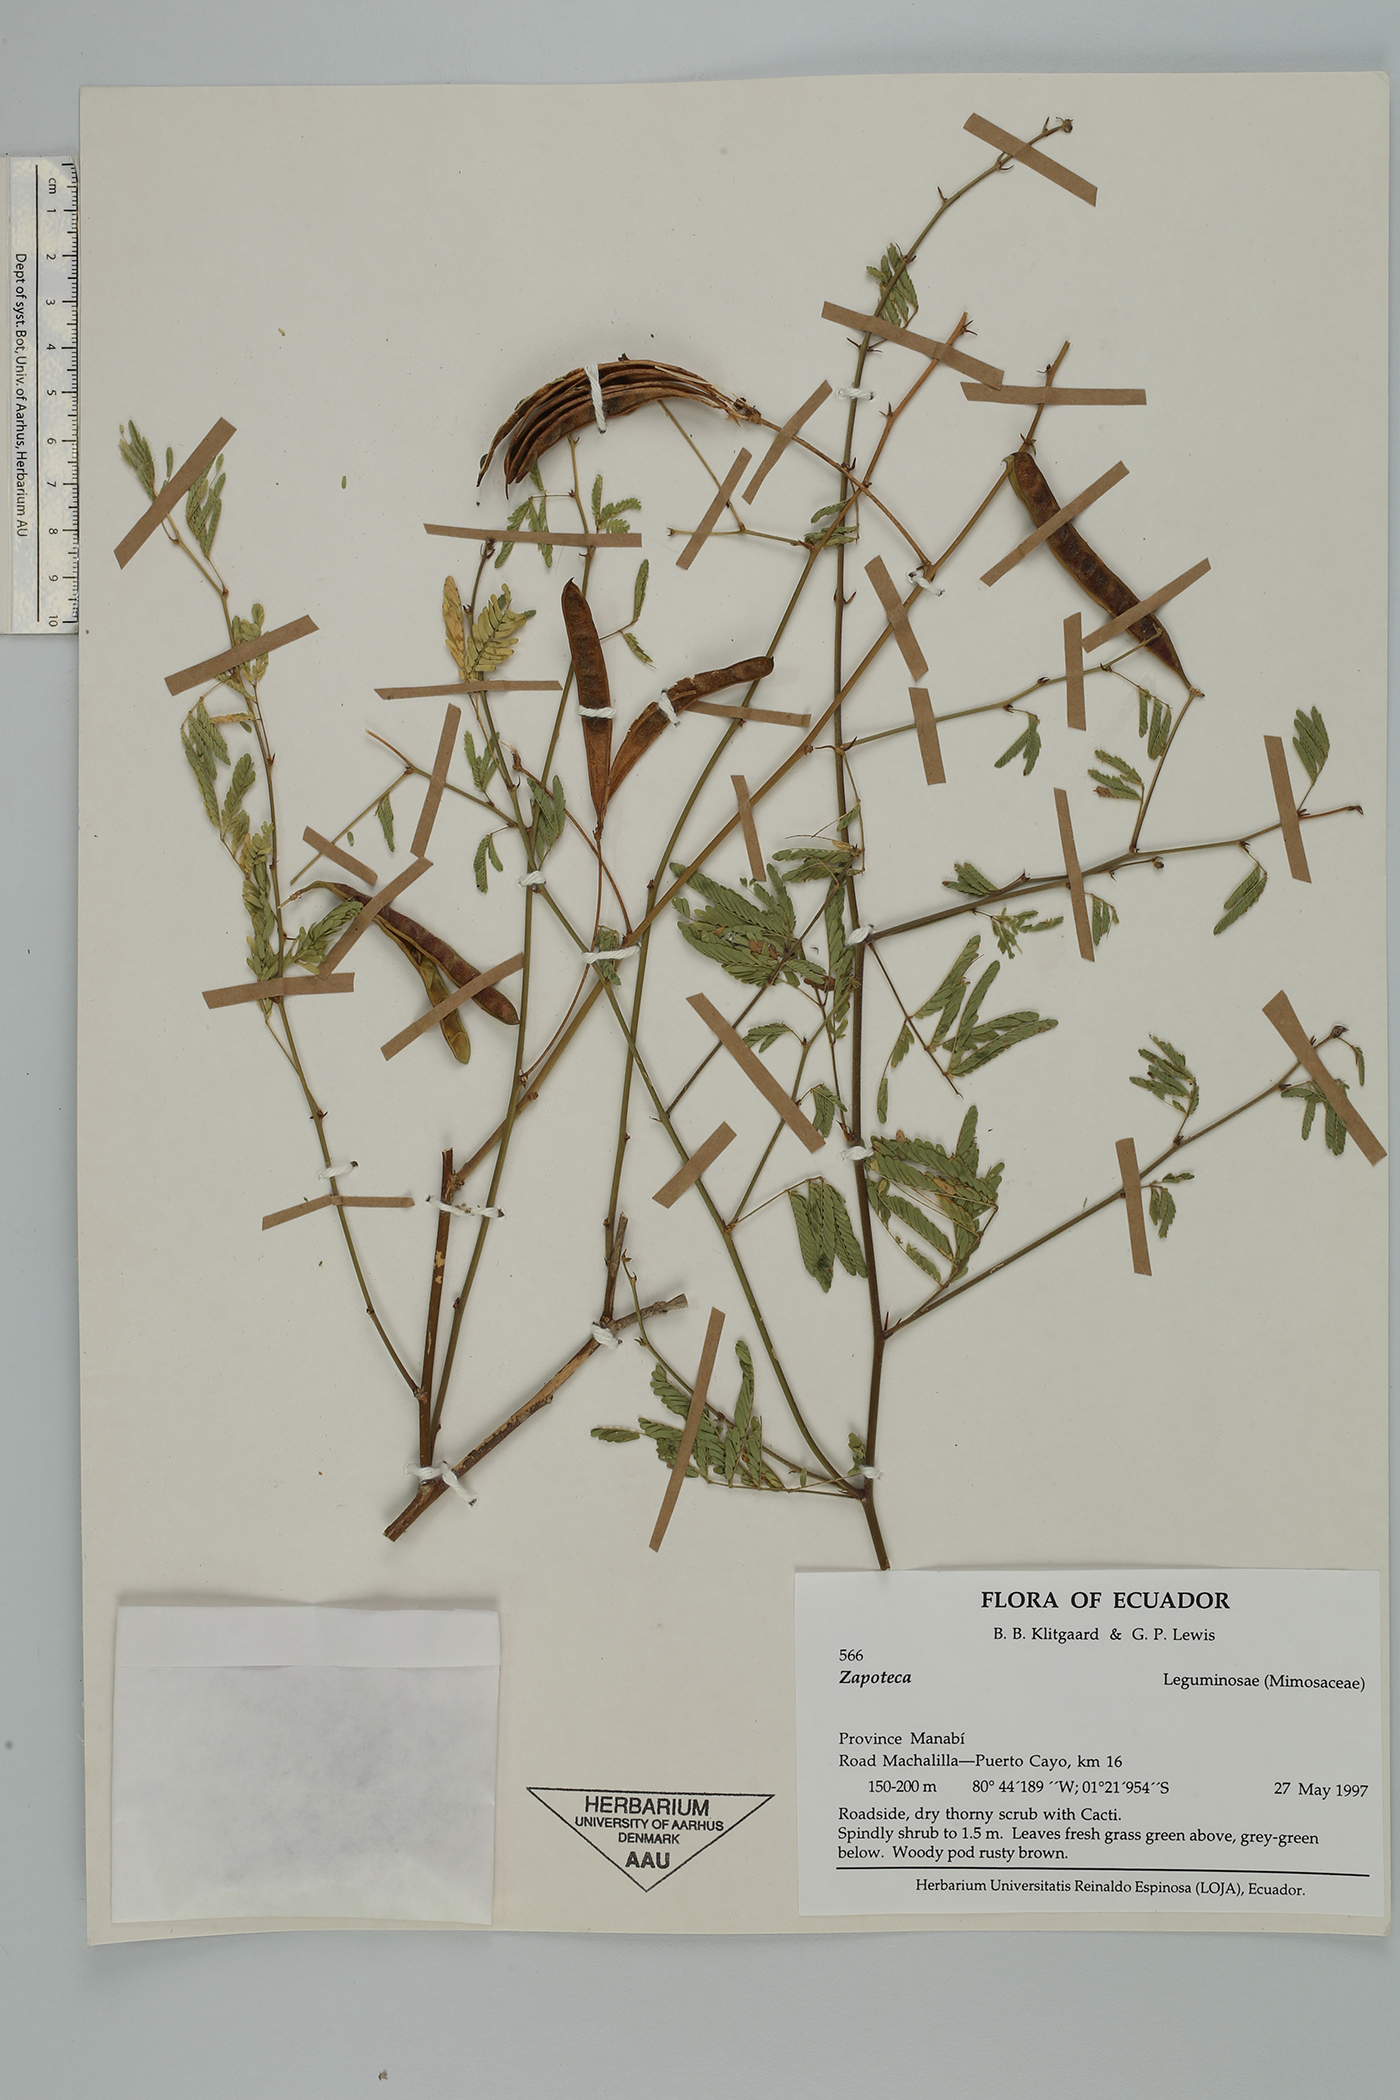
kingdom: Plantae
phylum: Tracheophyta
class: Magnoliopsida
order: Fabales
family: Fabaceae
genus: Zapoteca
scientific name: Zapoteca caracasana
